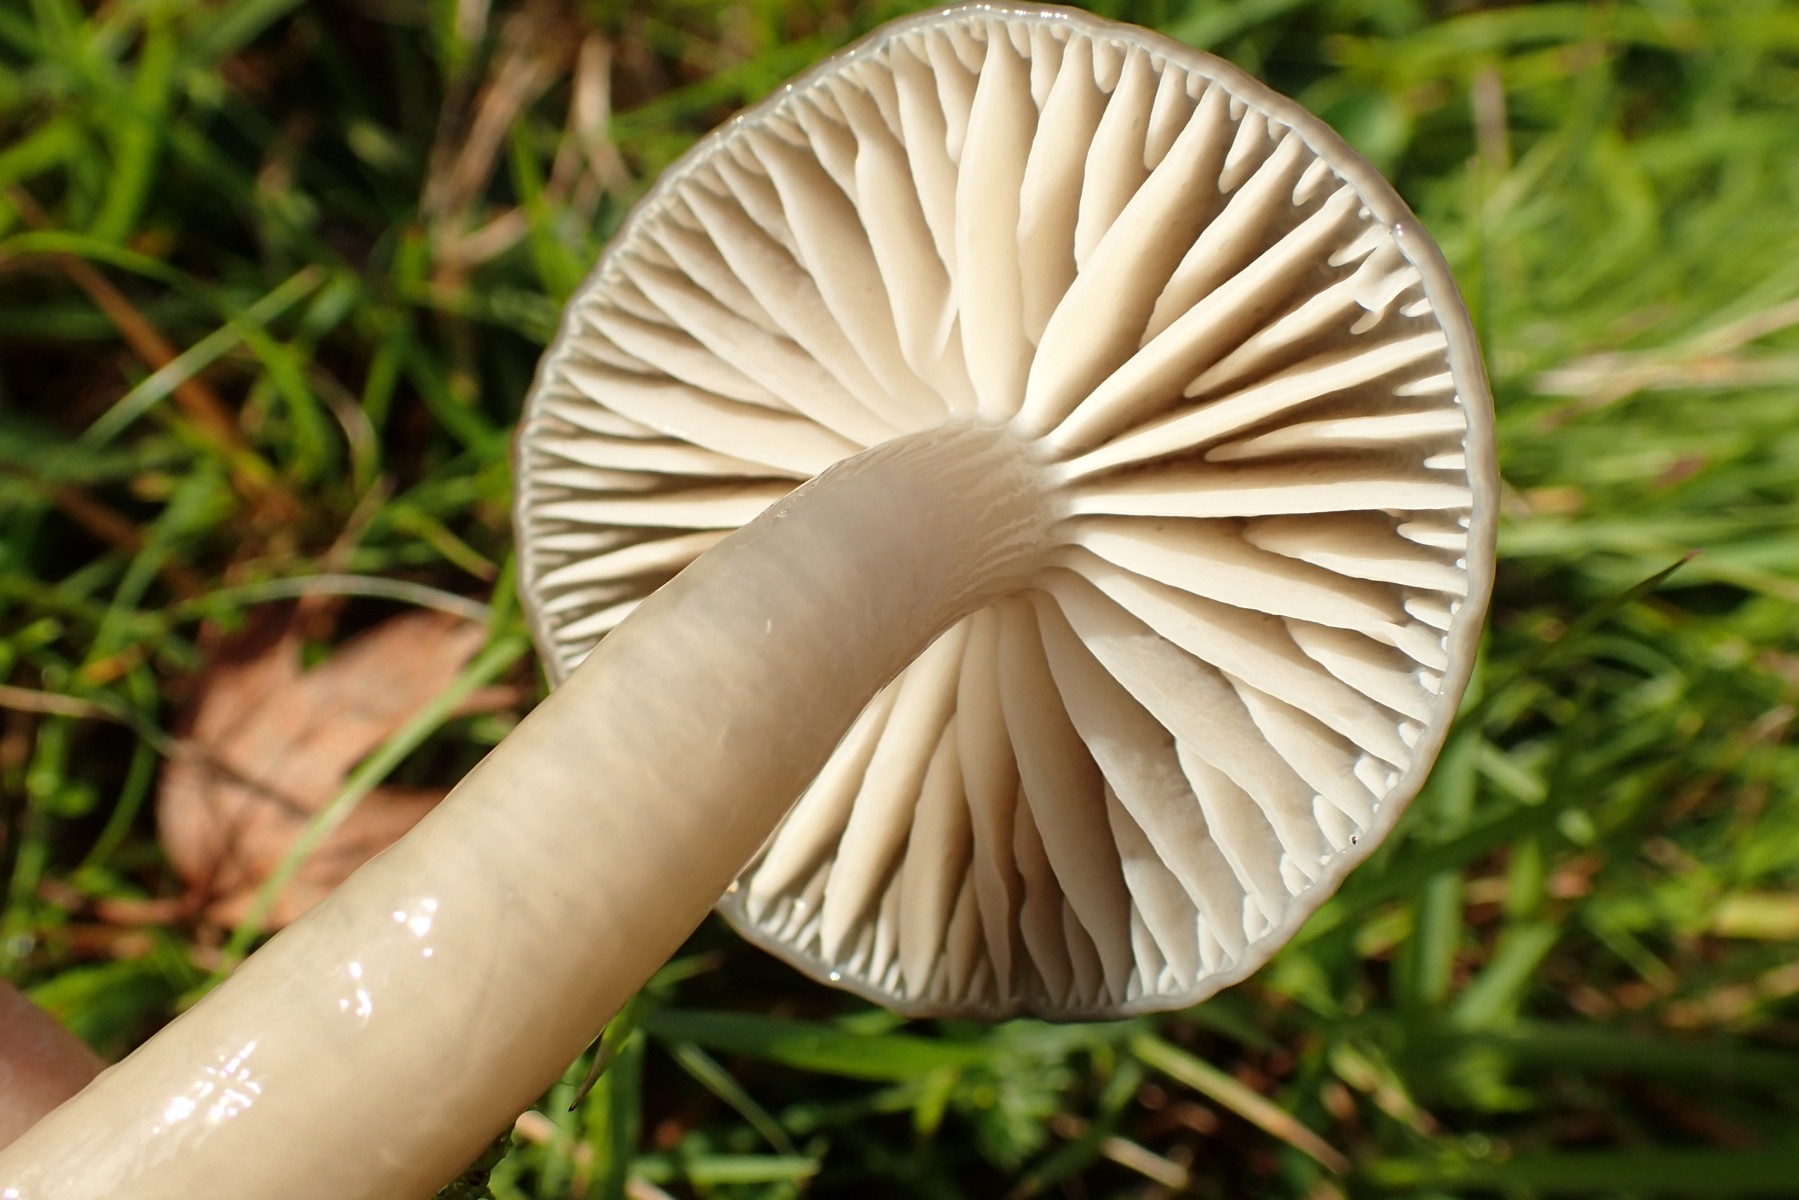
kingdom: Fungi
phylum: Basidiomycota
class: Agaricomycetes
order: Agaricales
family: Hygrophoraceae
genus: Gliophorus
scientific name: Gliophorus irrigatus
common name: slimet vokshat
